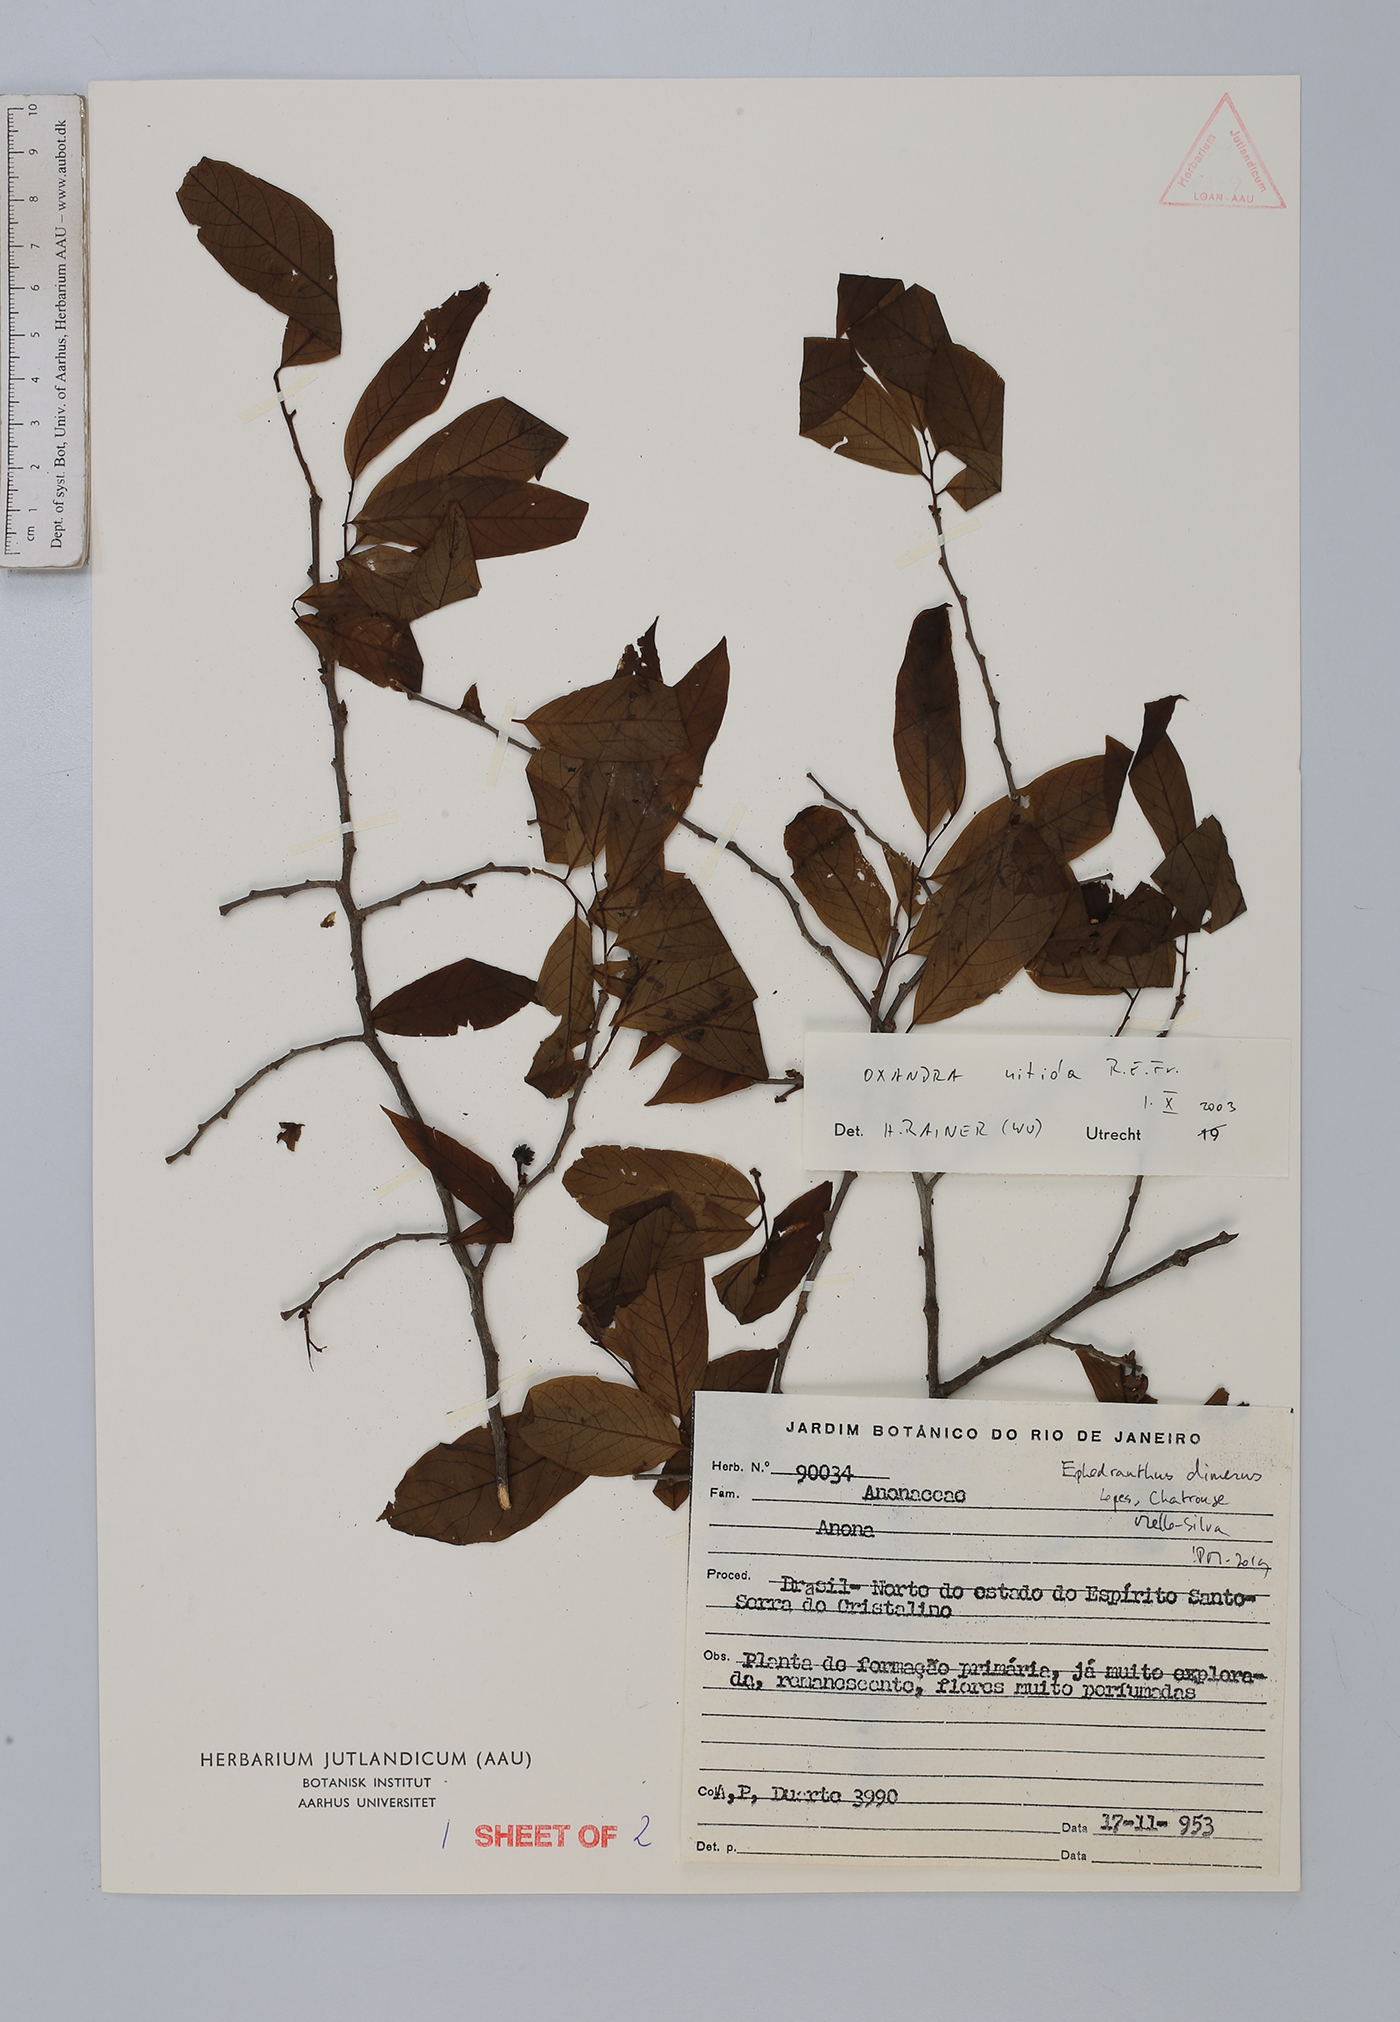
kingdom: Plantae
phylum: Tracheophyta
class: Magnoliopsida
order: Magnoliales
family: Annonaceae
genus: Ephedranthus
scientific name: Ephedranthus dimerus
